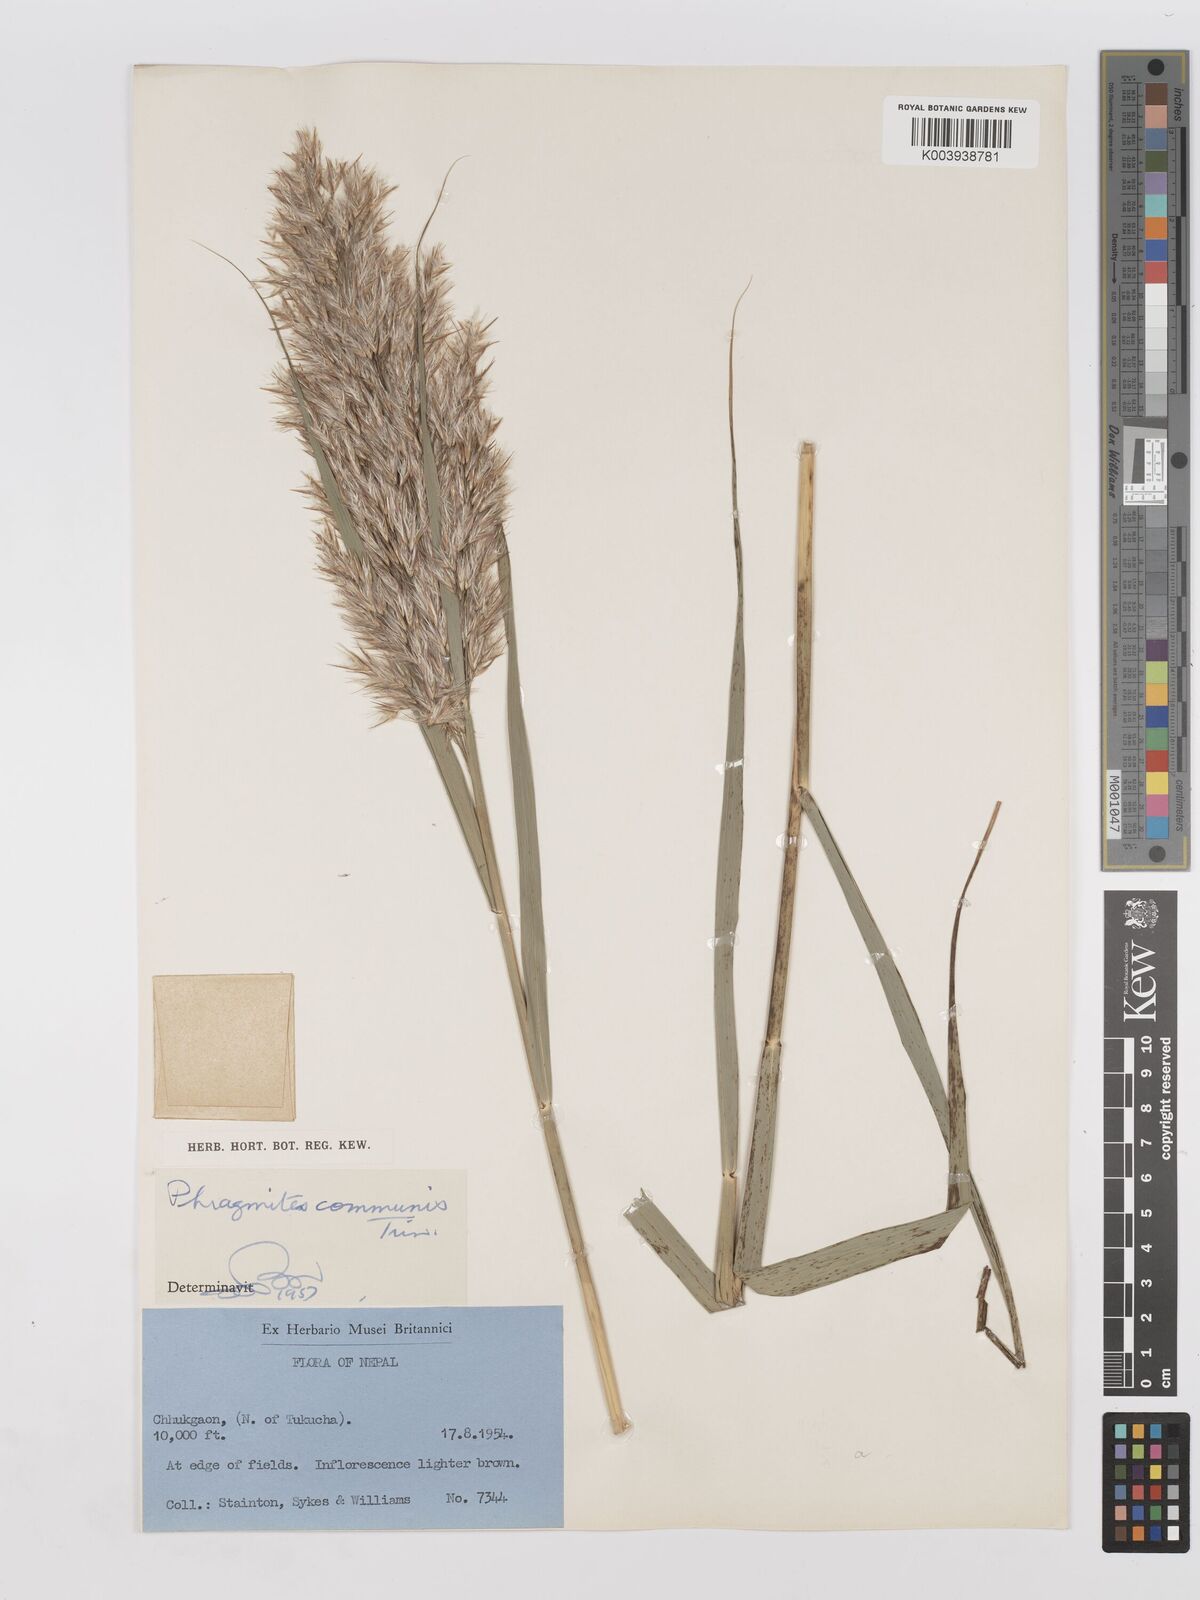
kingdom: Plantae
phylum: Tracheophyta
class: Liliopsida
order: Poales
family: Poaceae
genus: Phragmites
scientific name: Phragmites australis
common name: Common reed
